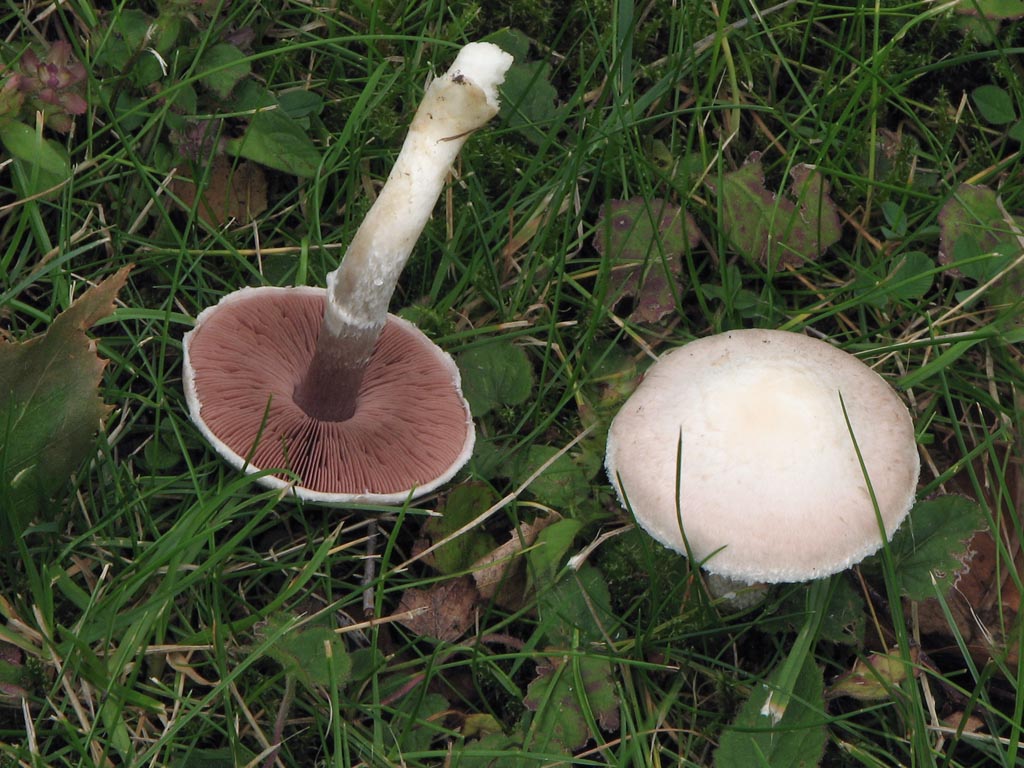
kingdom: Fungi
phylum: Basidiomycota
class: Agaricomycetes
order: Agaricales
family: Agaricaceae
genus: Agaricus
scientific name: Agaricus campestris
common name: mark-champignon
